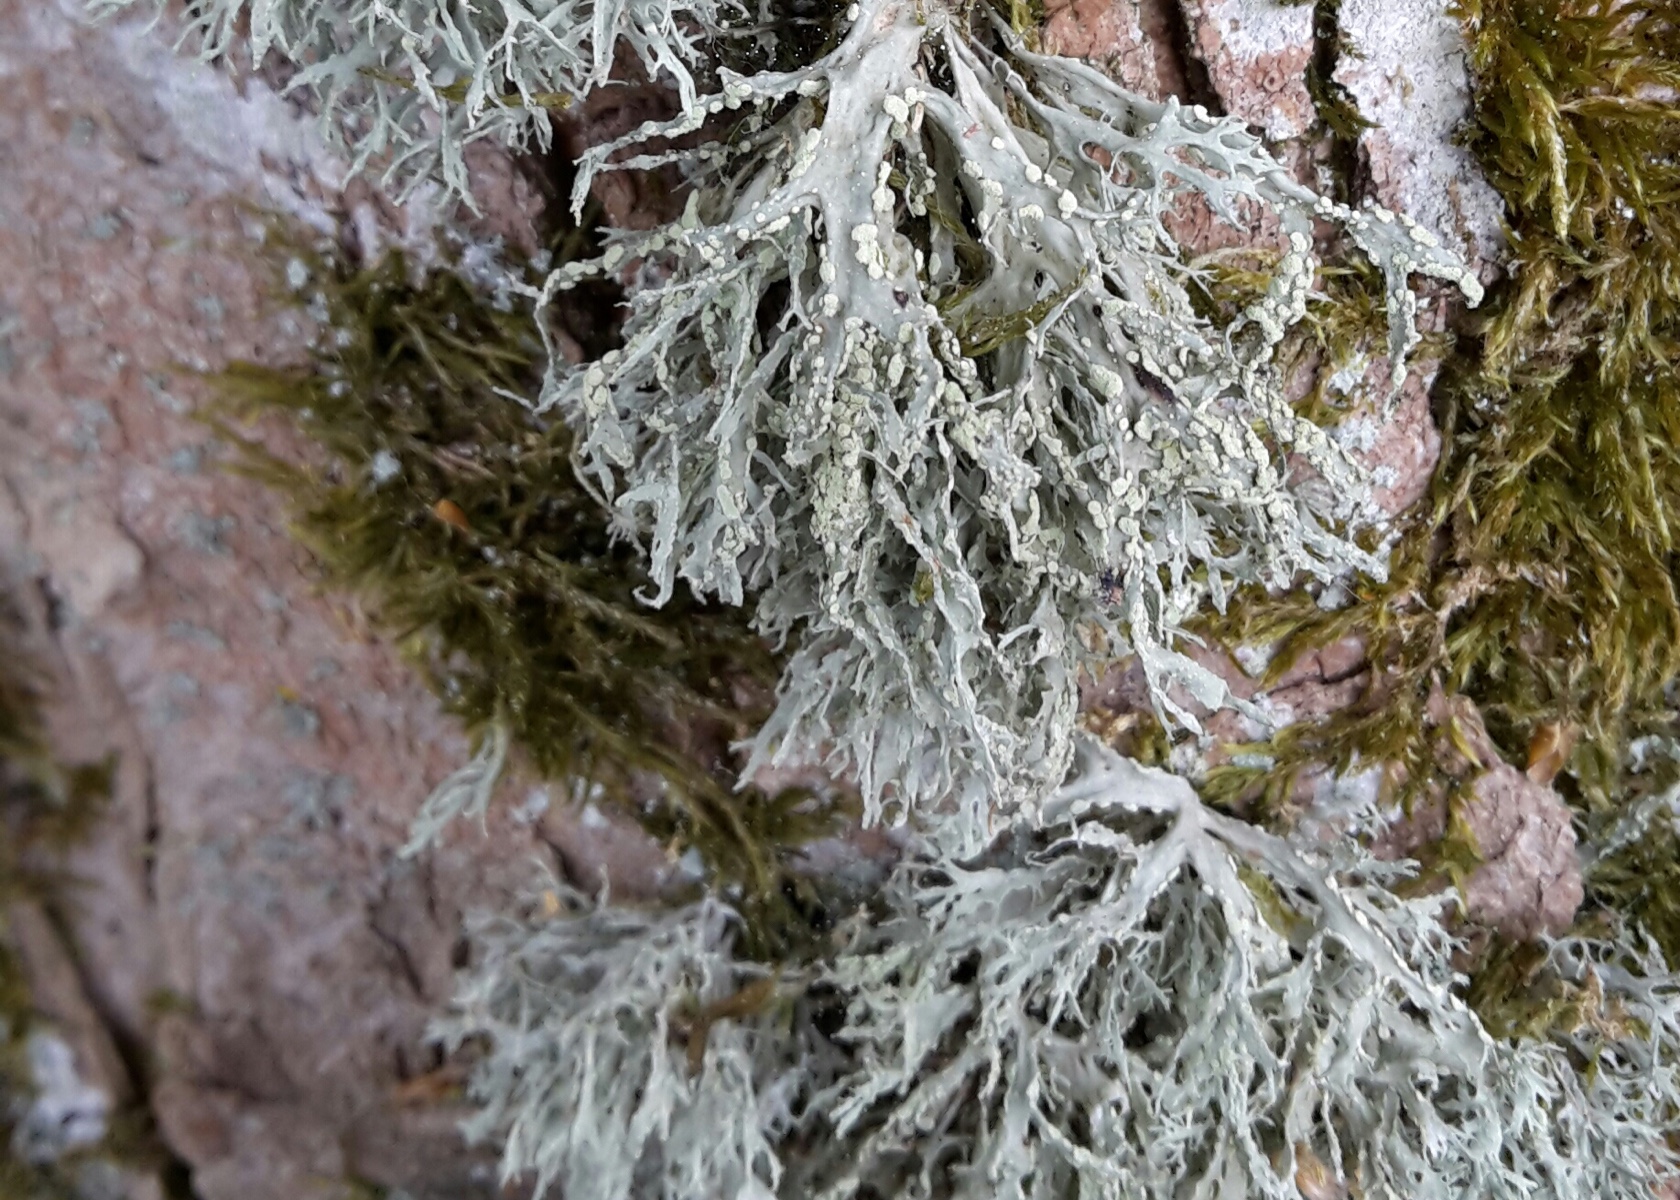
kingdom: Fungi
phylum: Ascomycota
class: Lecanoromycetes
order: Lecanorales
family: Ramalinaceae
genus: Ramalina
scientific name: Ramalina farinacea
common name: melet grenlav
